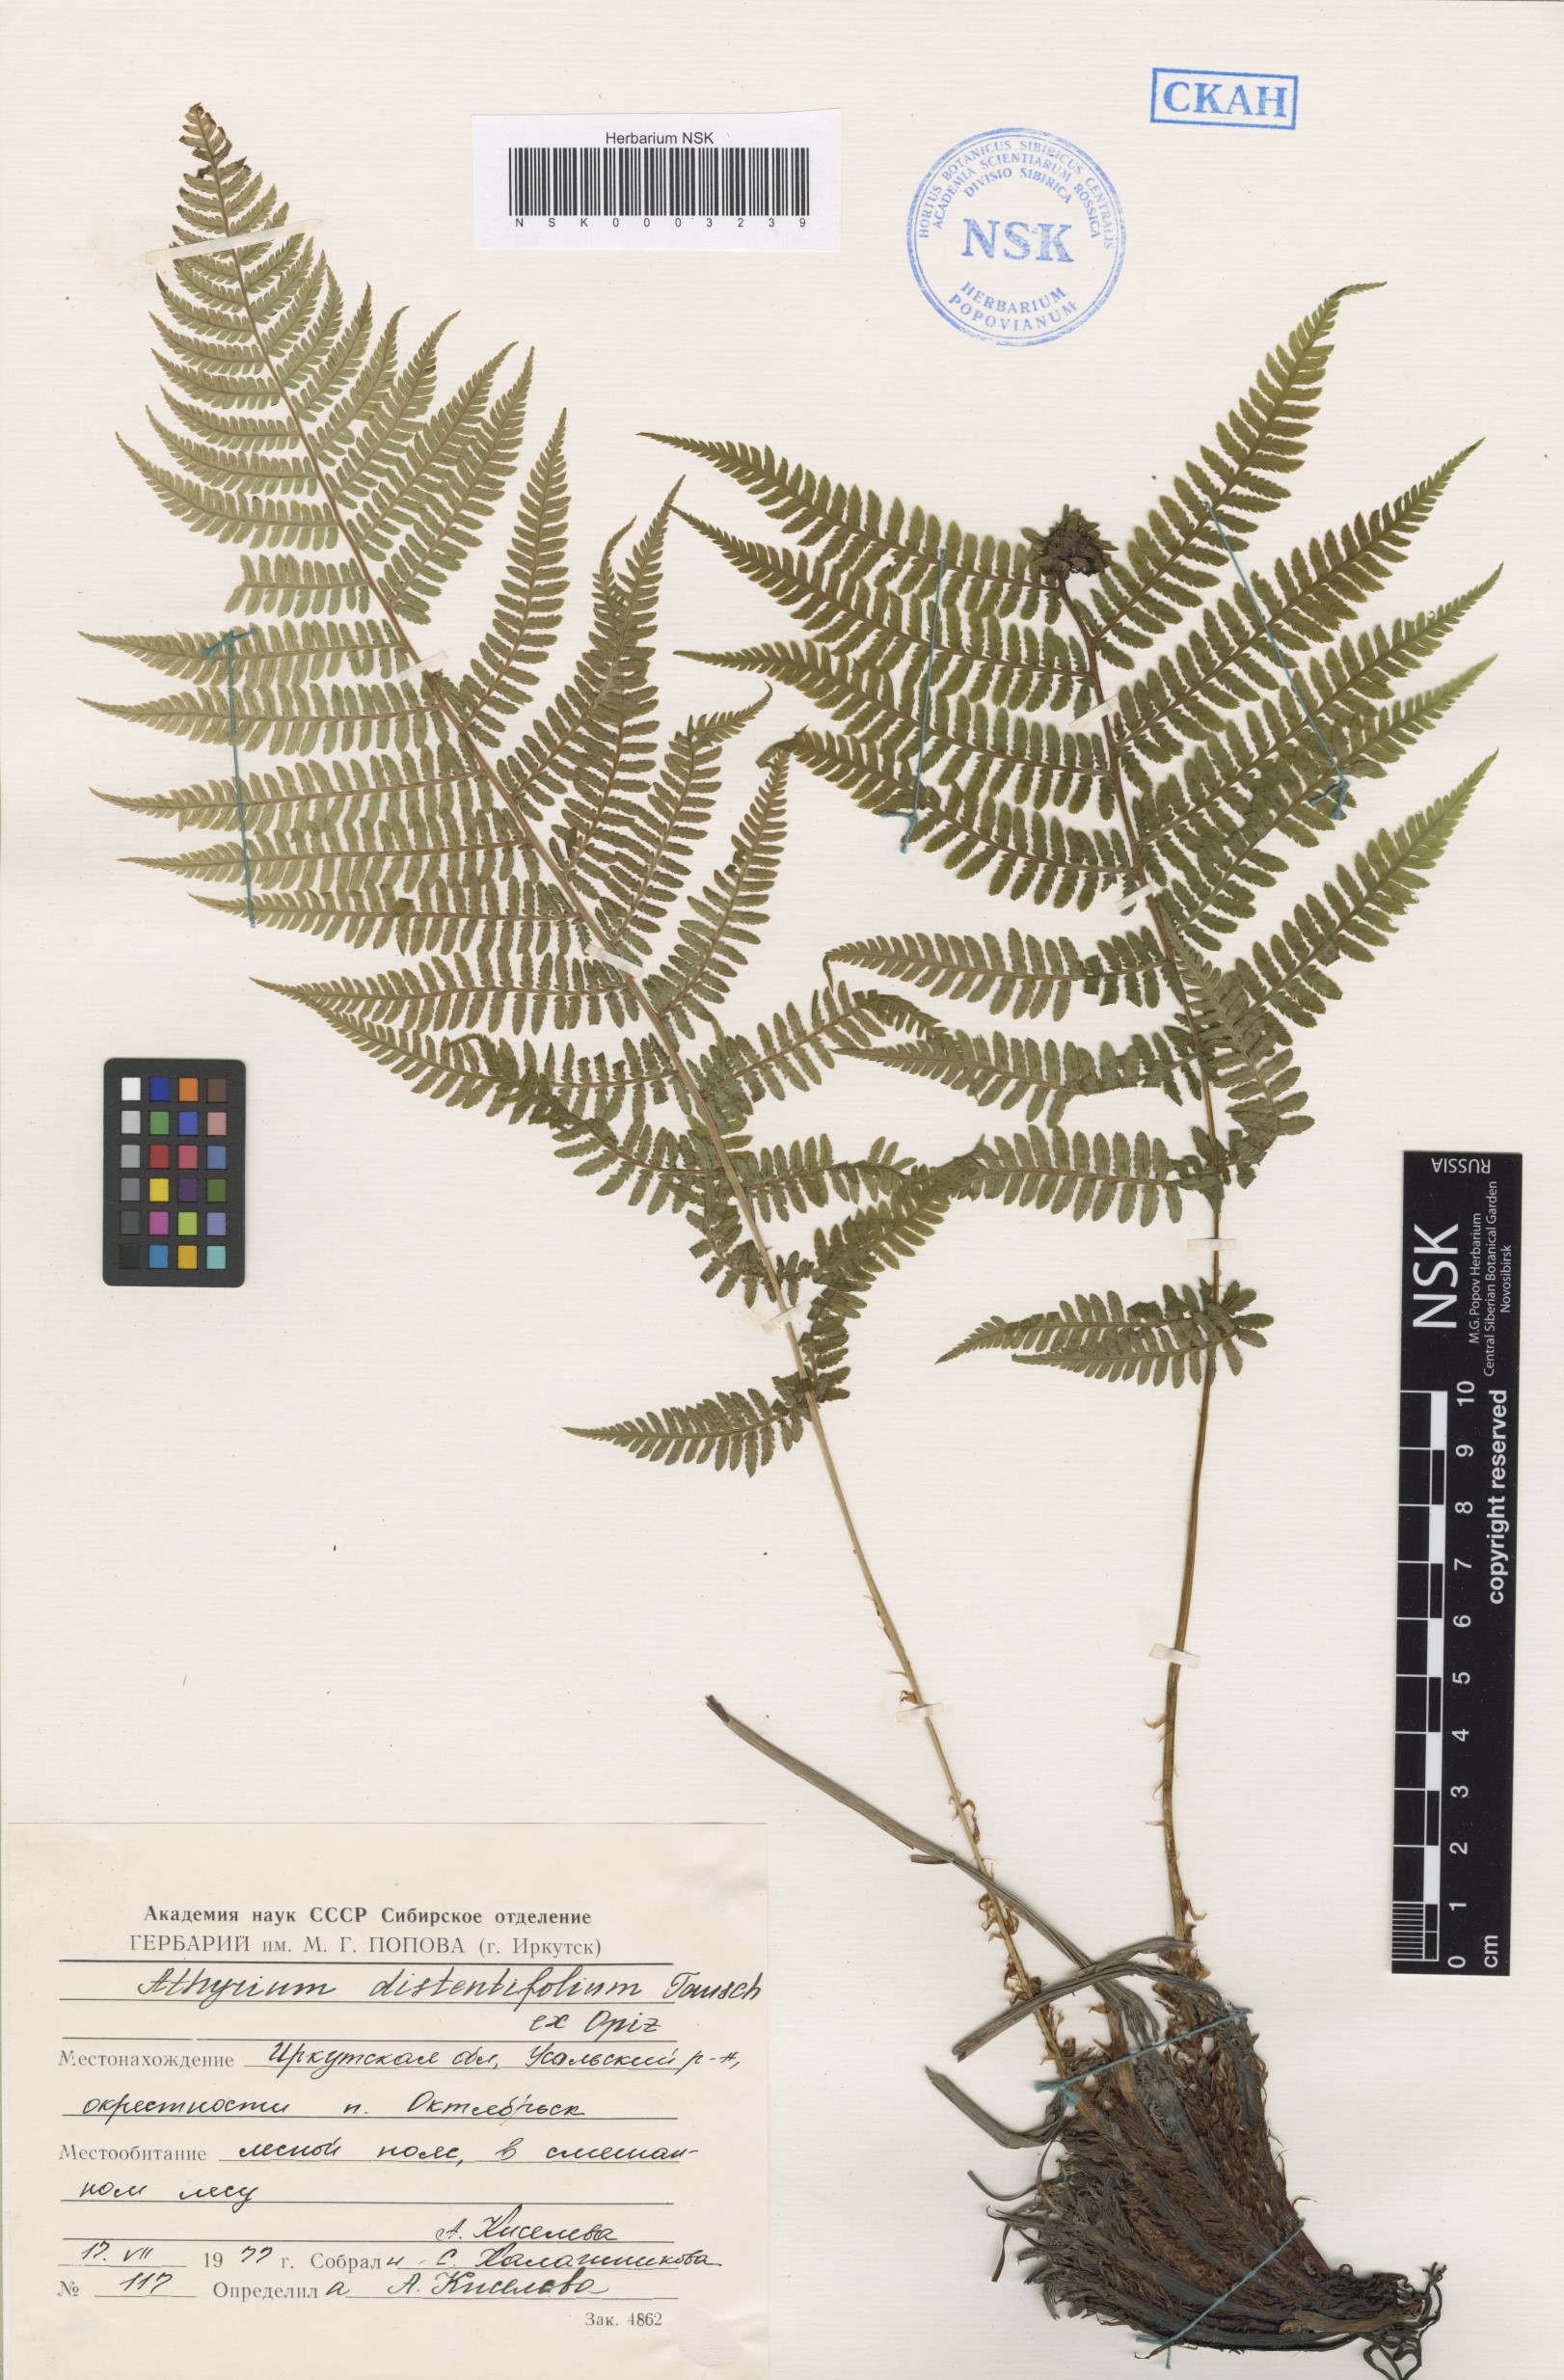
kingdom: Plantae
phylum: Tracheophyta
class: Polypodiopsida
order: Polypodiales
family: Athyriaceae
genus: Pseudathyrium
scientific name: Pseudathyrium alpestre
